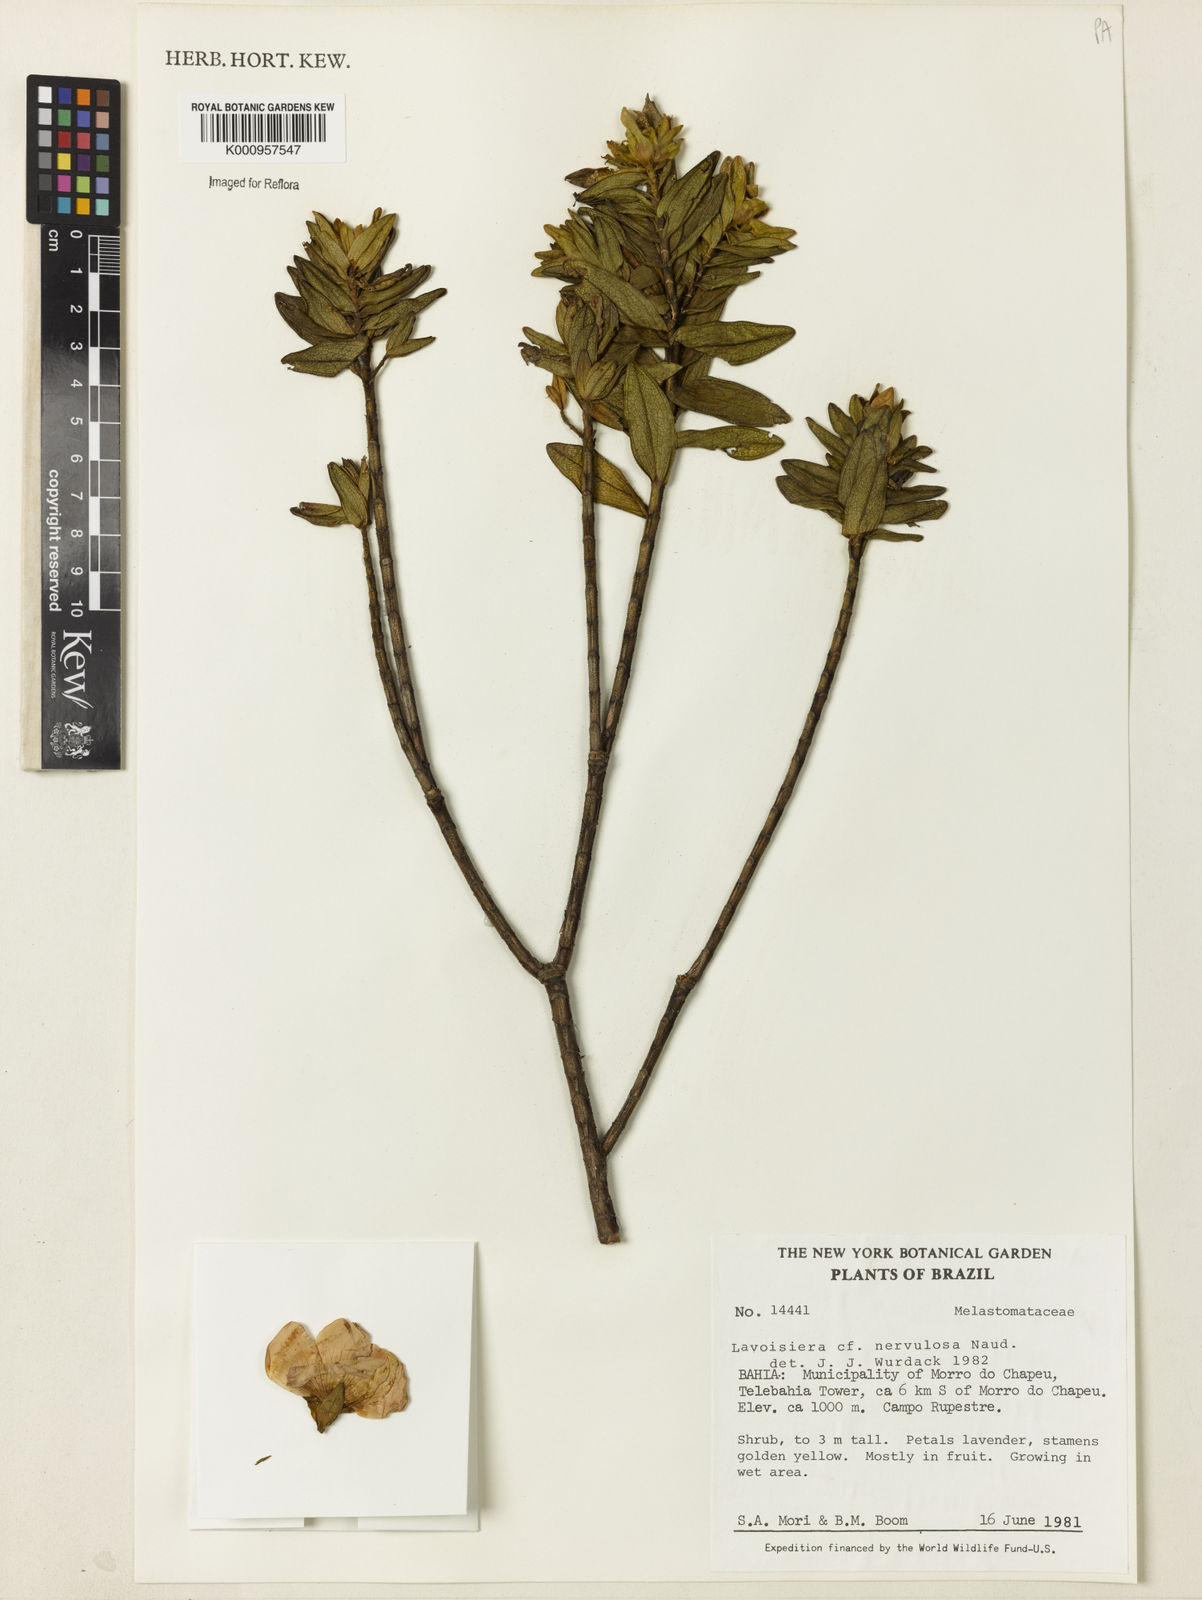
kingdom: Plantae
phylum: Tracheophyta
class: Magnoliopsida
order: Myrtales
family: Melastomataceae
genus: Microlicia
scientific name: Microlicia nervulosa
